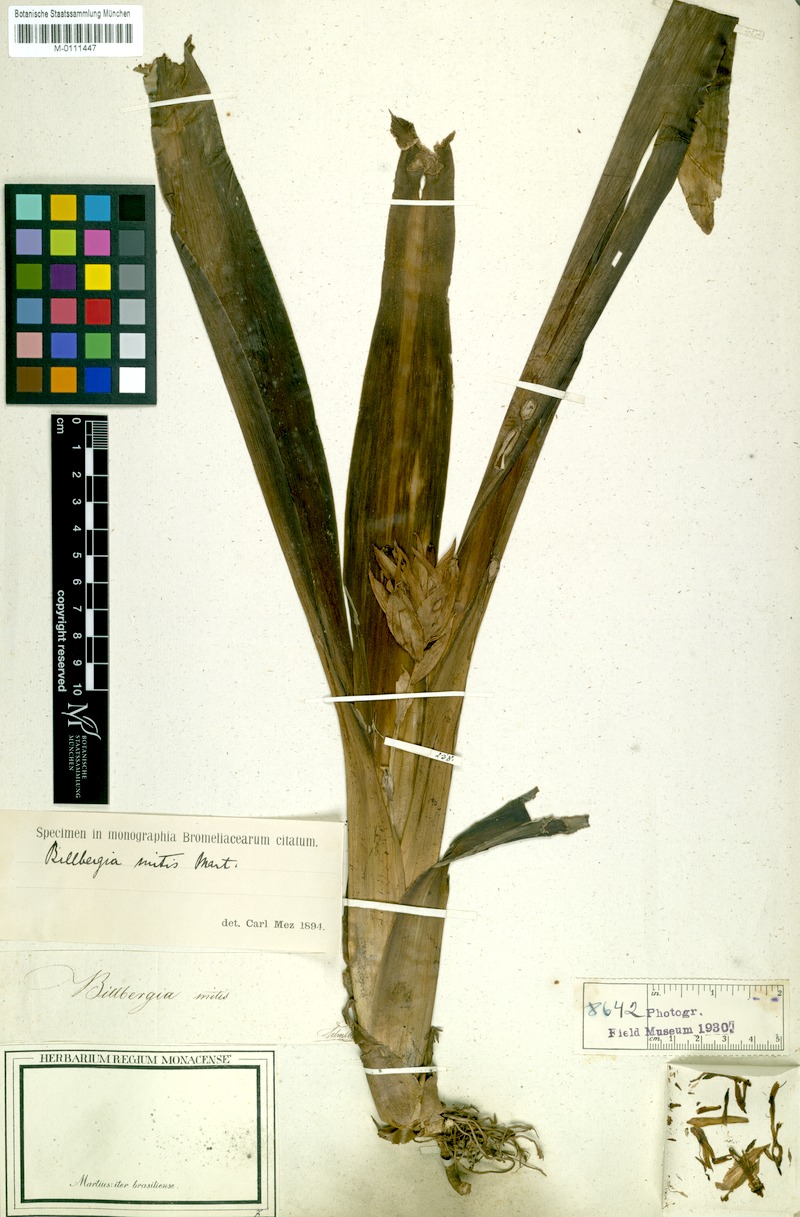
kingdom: Plantae
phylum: Tracheophyta
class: Liliopsida
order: Poales
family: Bromeliaceae
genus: Aechmea
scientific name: Aechmea corymbosa
